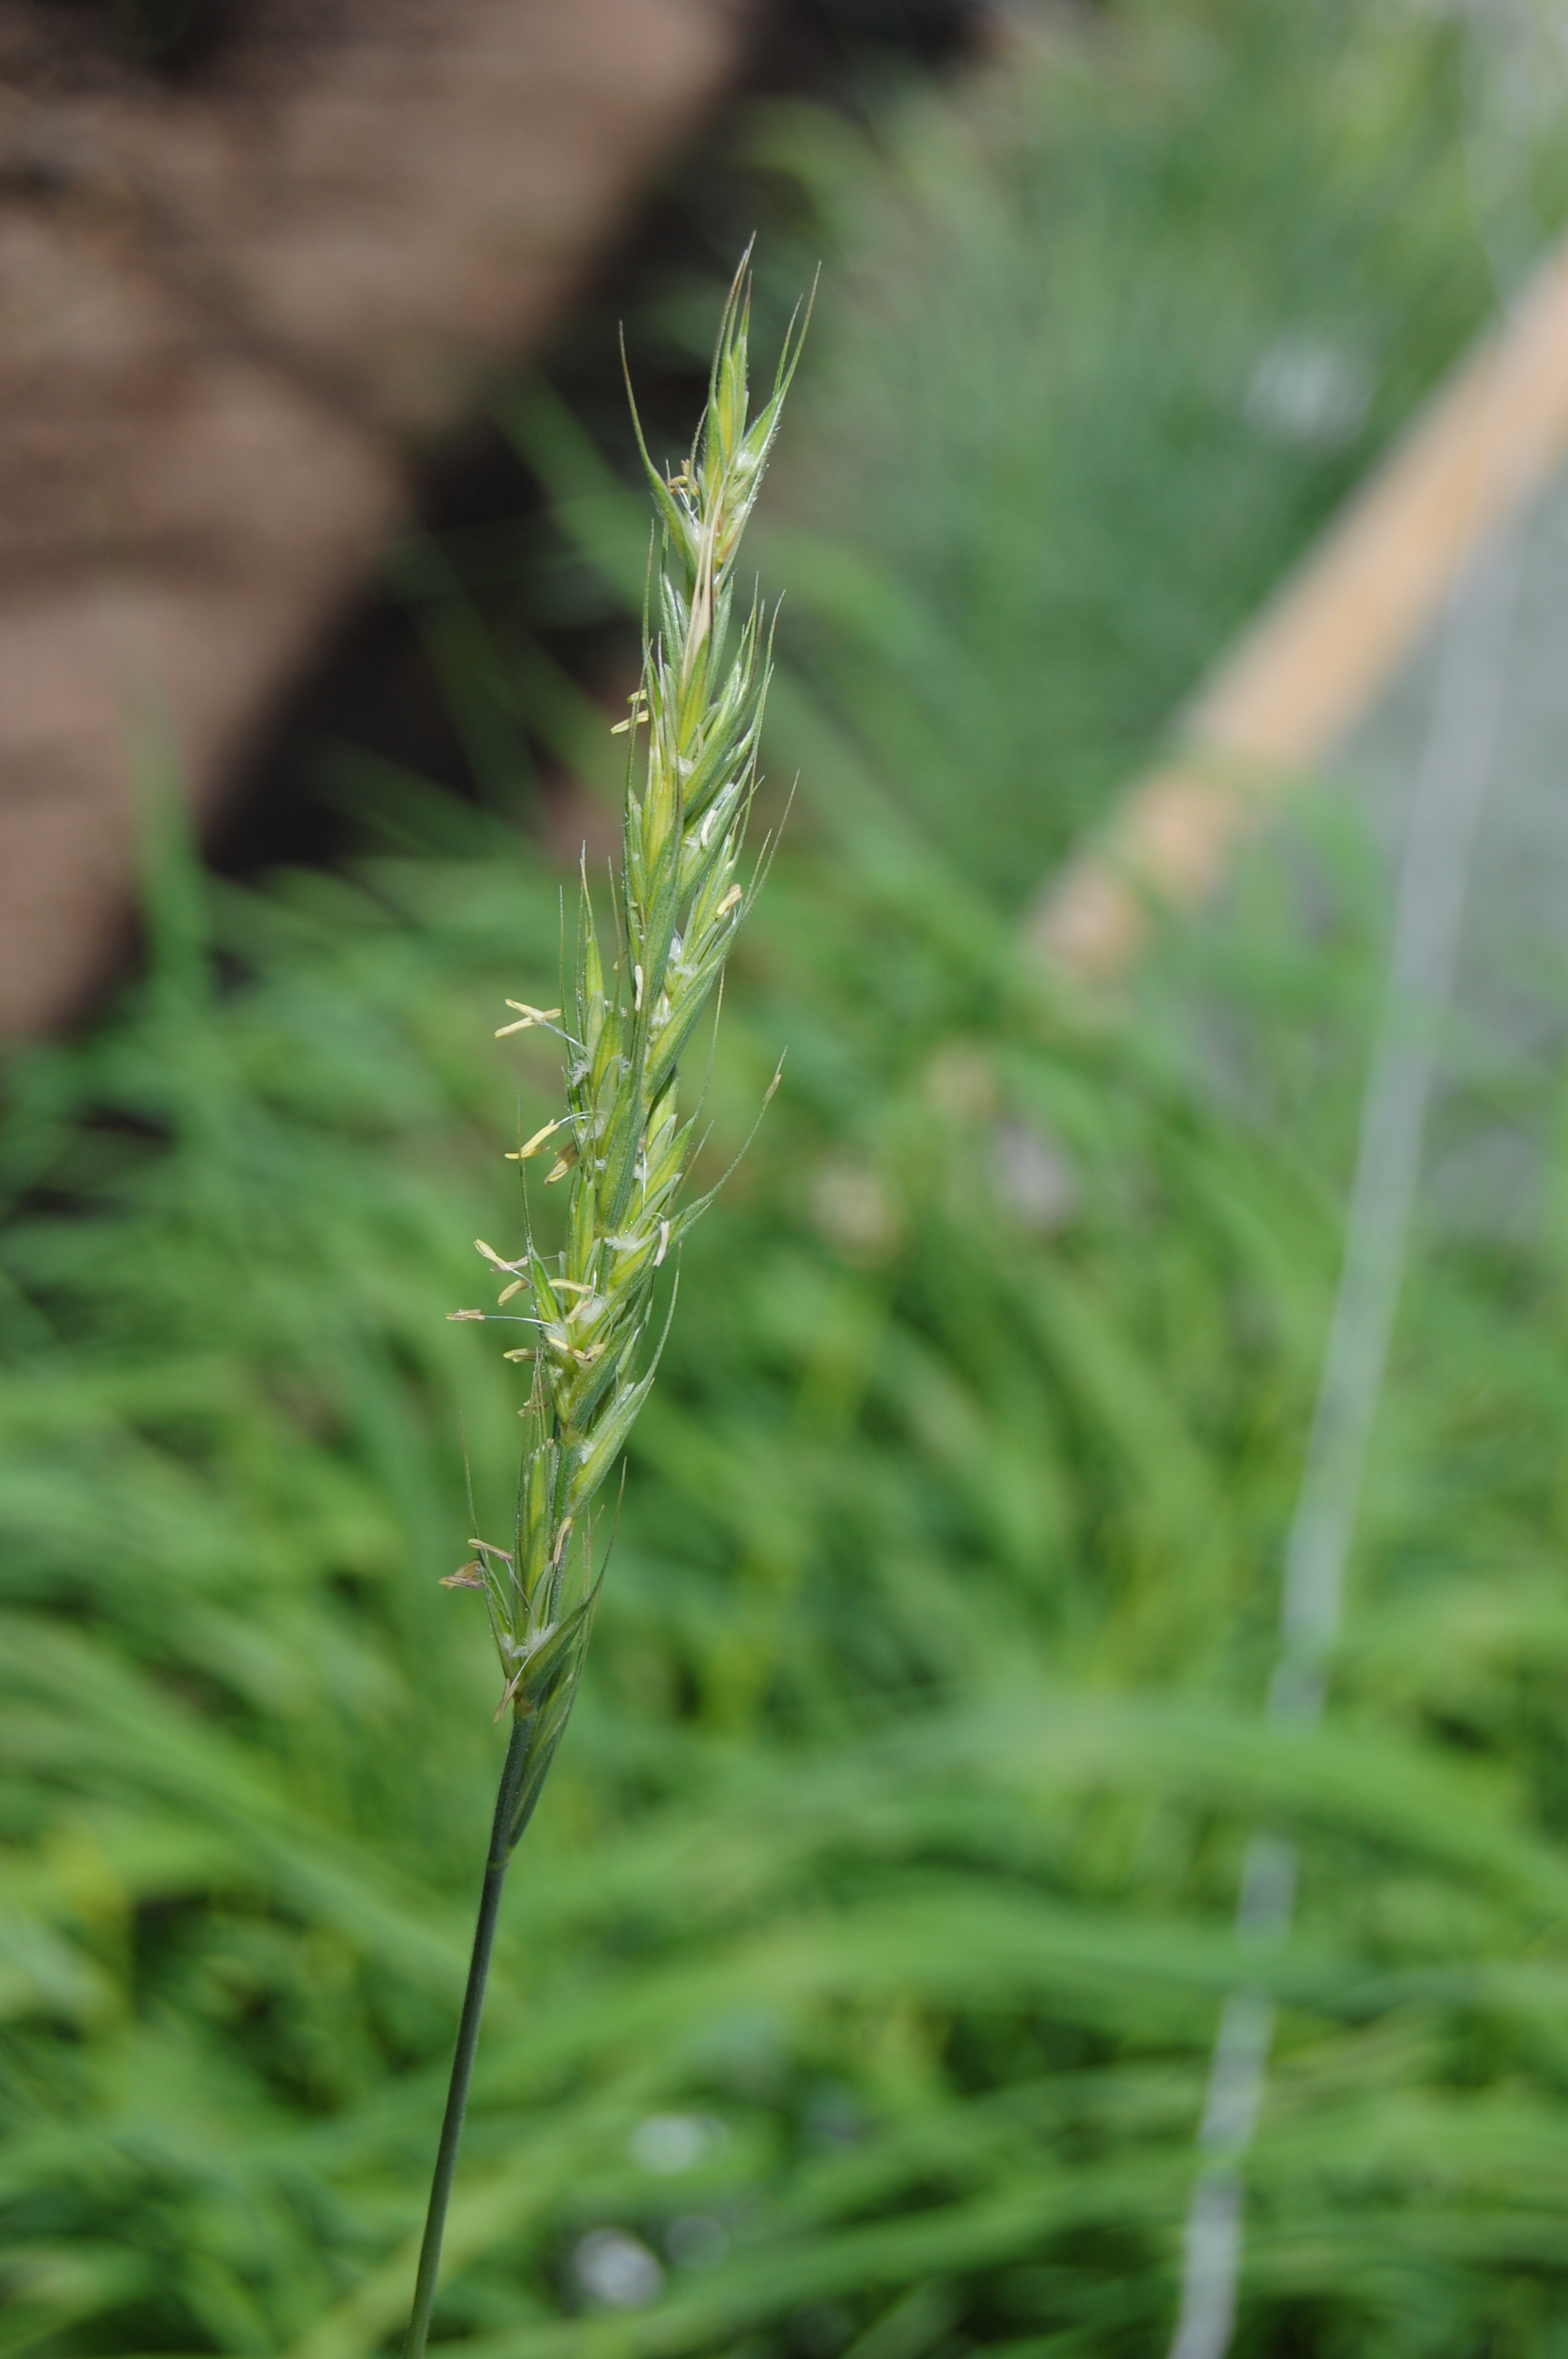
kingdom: Plantae
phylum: Tracheophyta
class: Liliopsida
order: Poales
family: Poaceae
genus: Kengyilia
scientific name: Kengyilia batalinii
